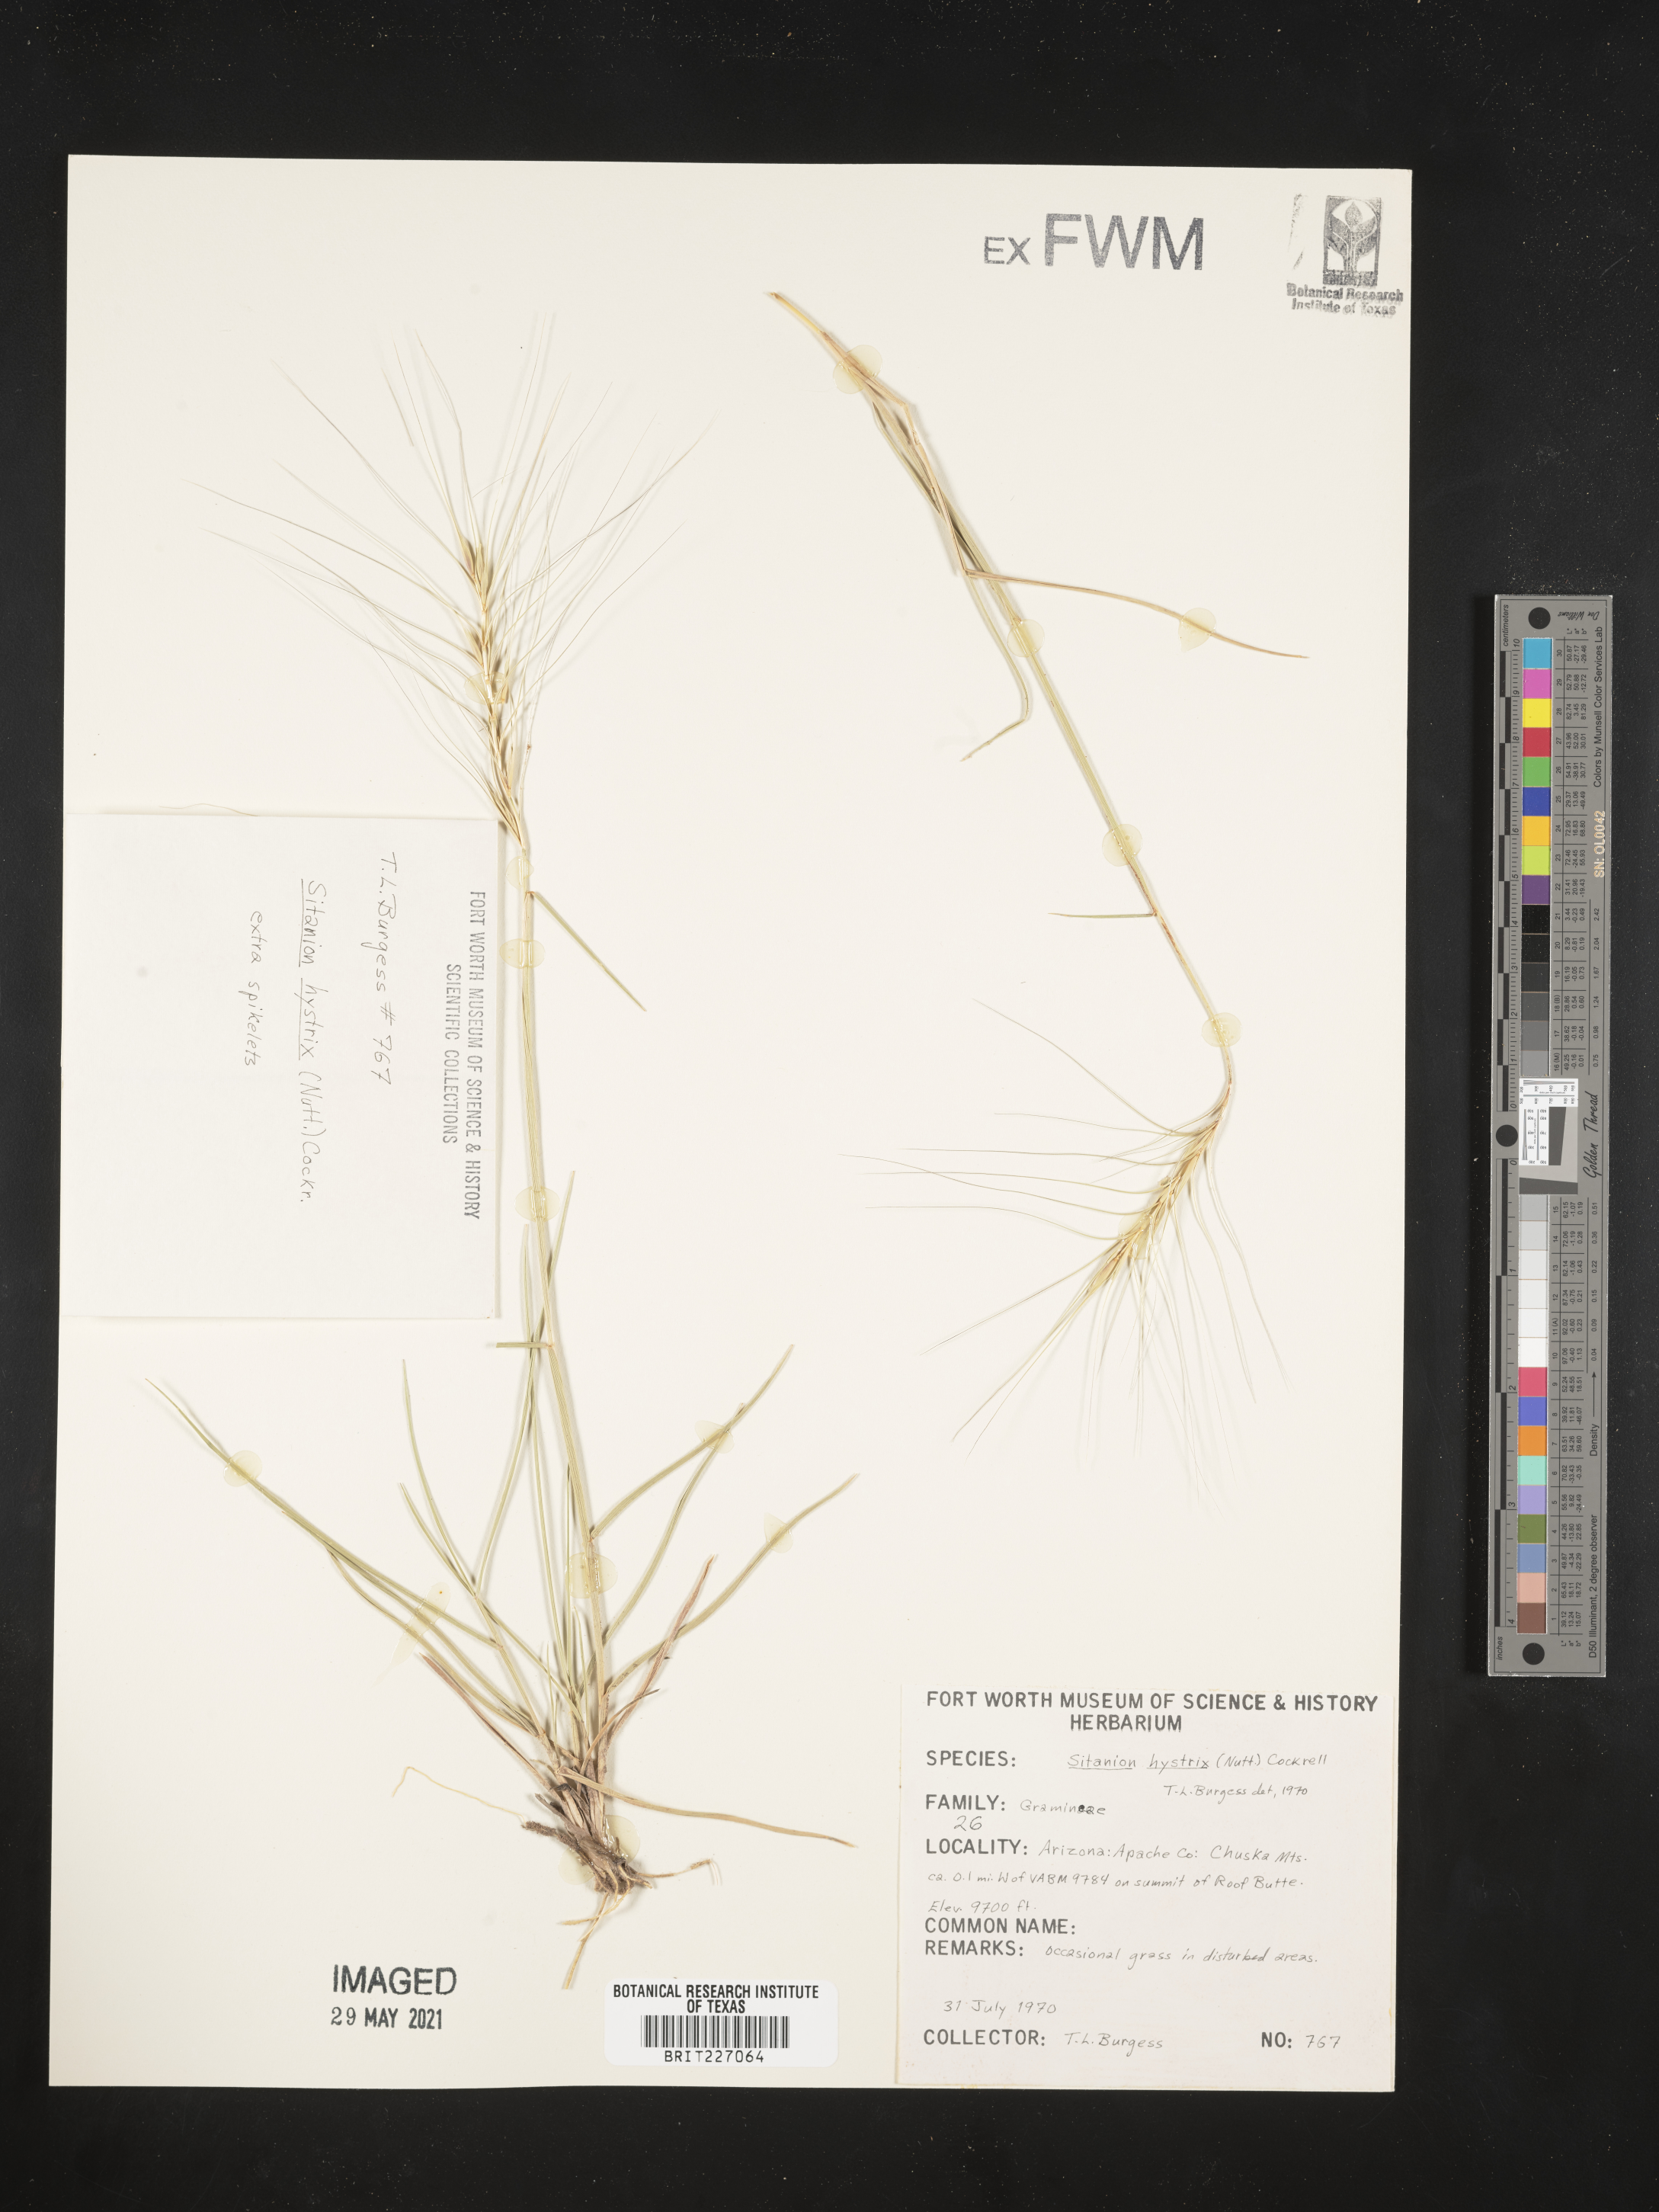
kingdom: Plantae
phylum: Tracheophyta
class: Liliopsida
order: Poales
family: Poaceae
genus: Elymus
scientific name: Elymus elymoides
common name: Bottlebrush squirreltail
